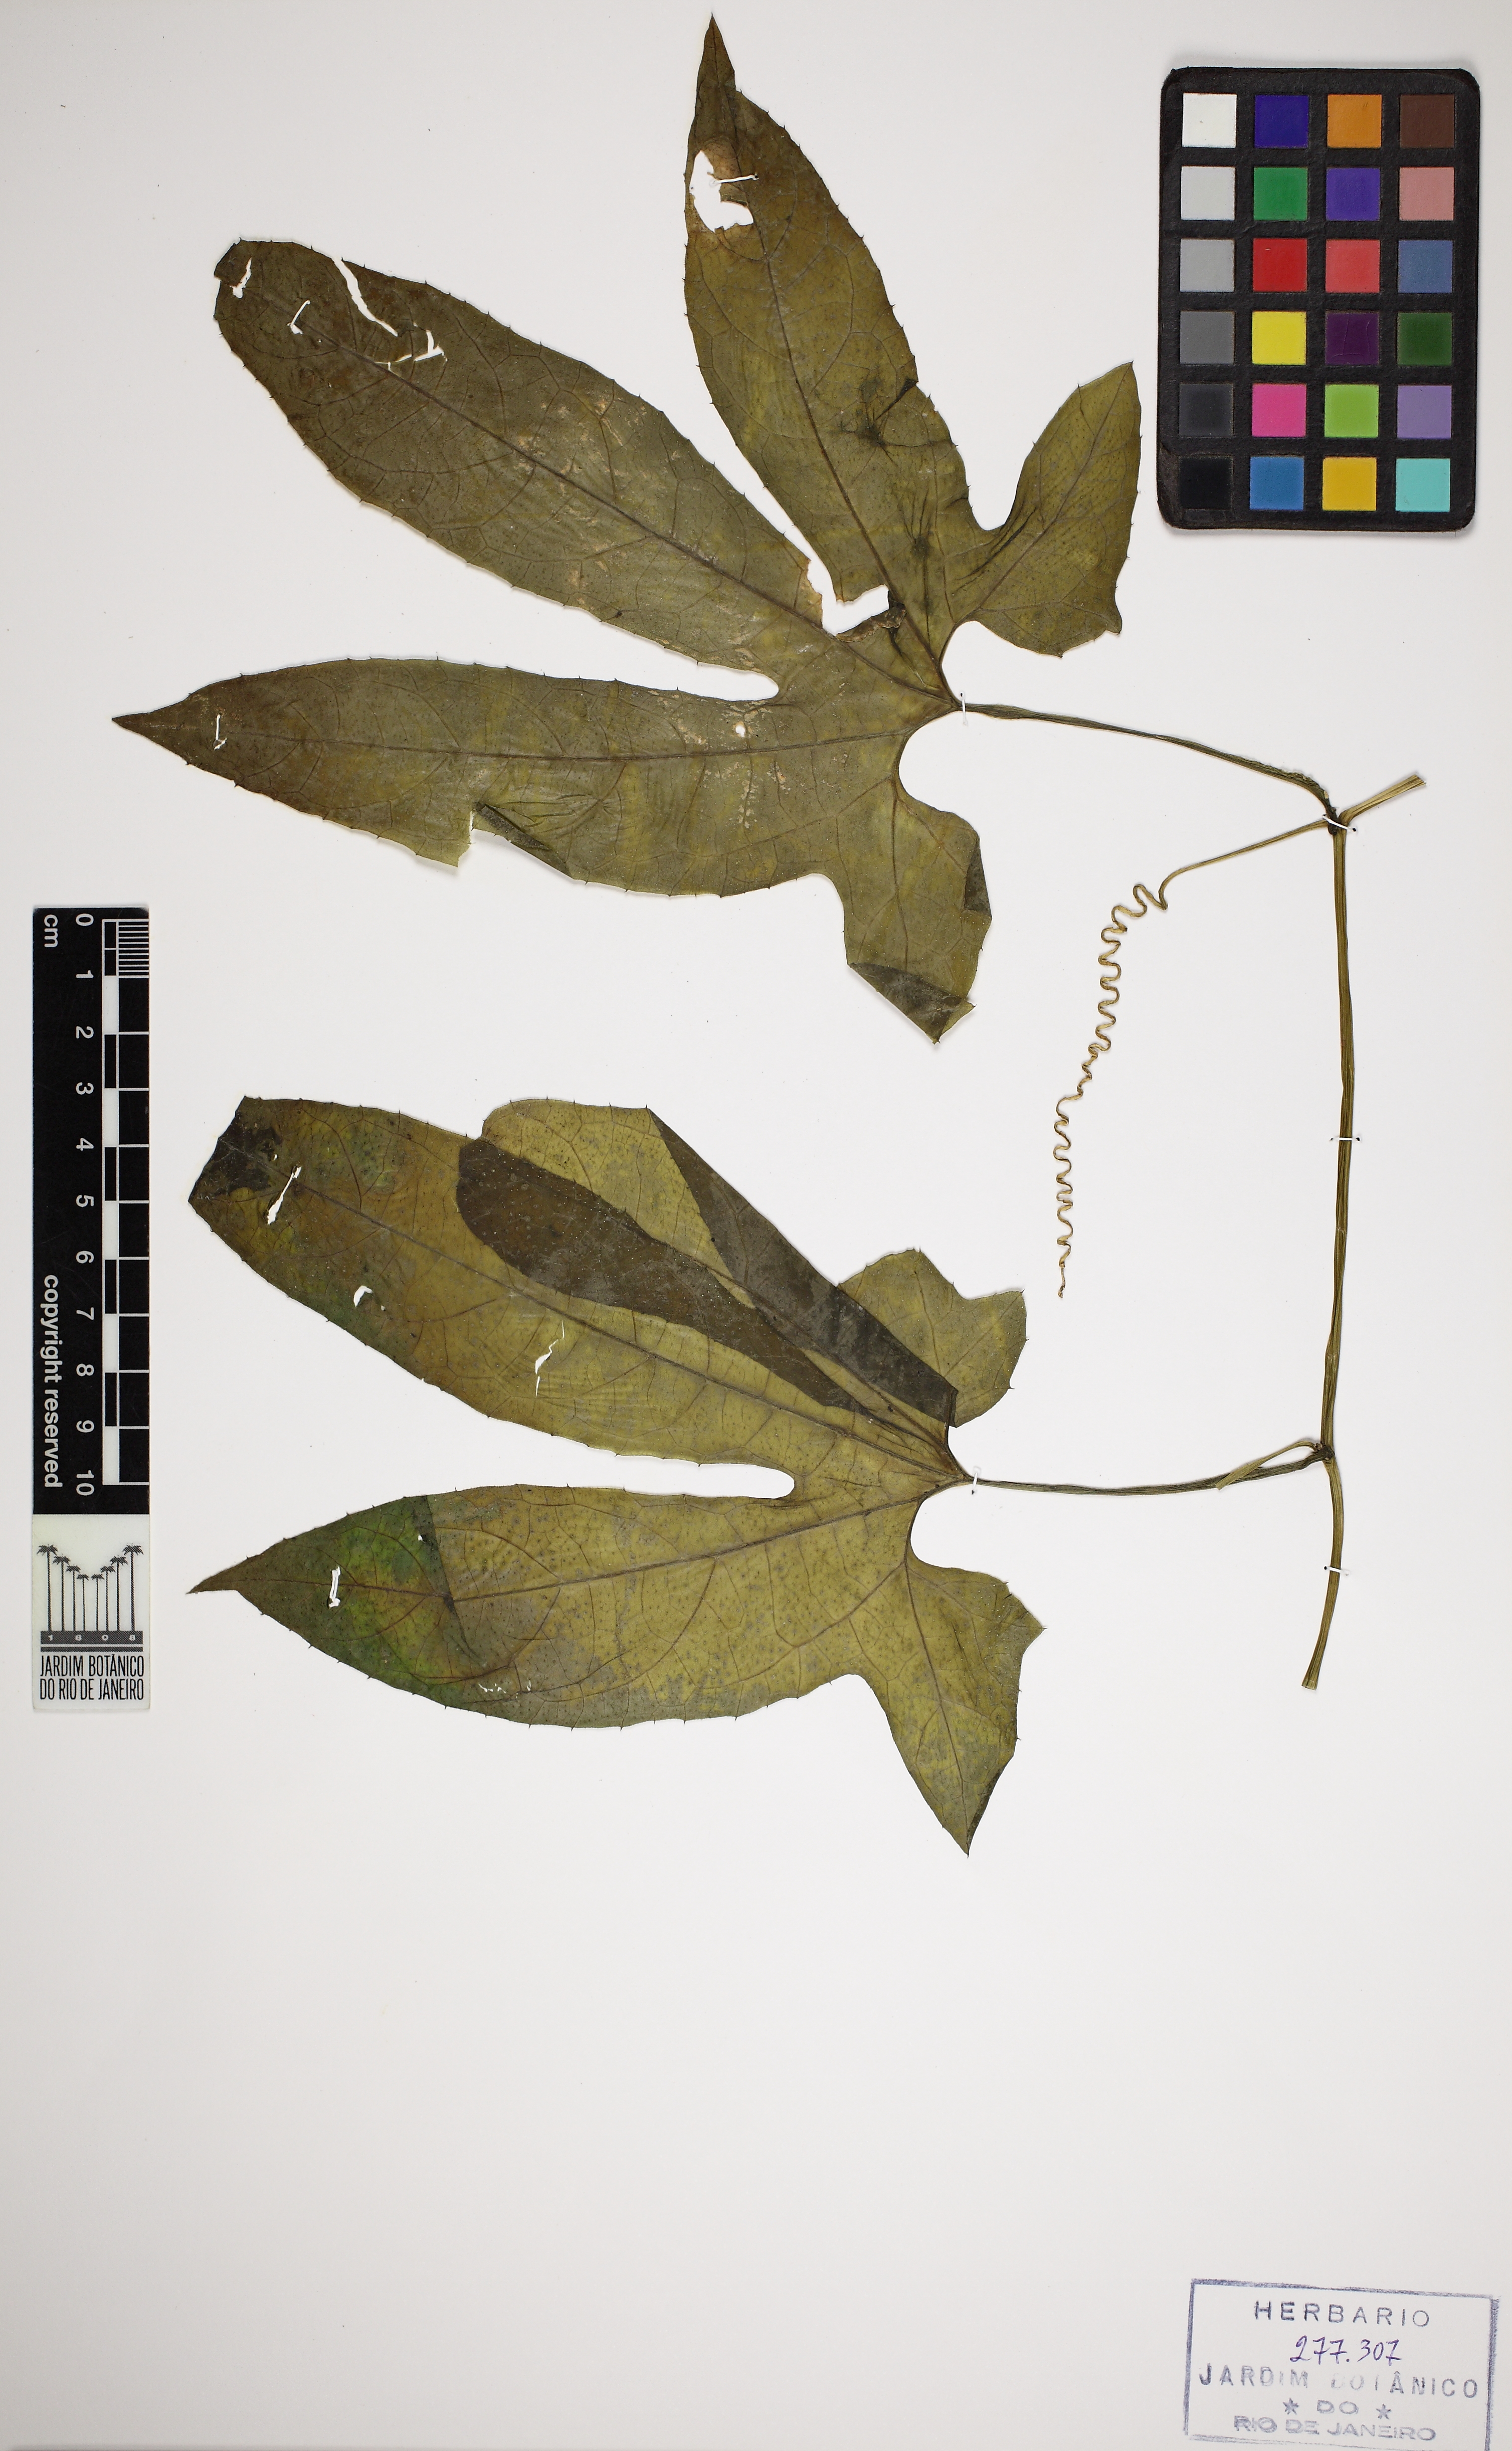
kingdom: Plantae
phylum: Tracheophyta
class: Magnoliopsida
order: Cucurbitales
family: Cucurbitaceae
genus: Wilbrandia
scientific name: Wilbrandia verticillata
